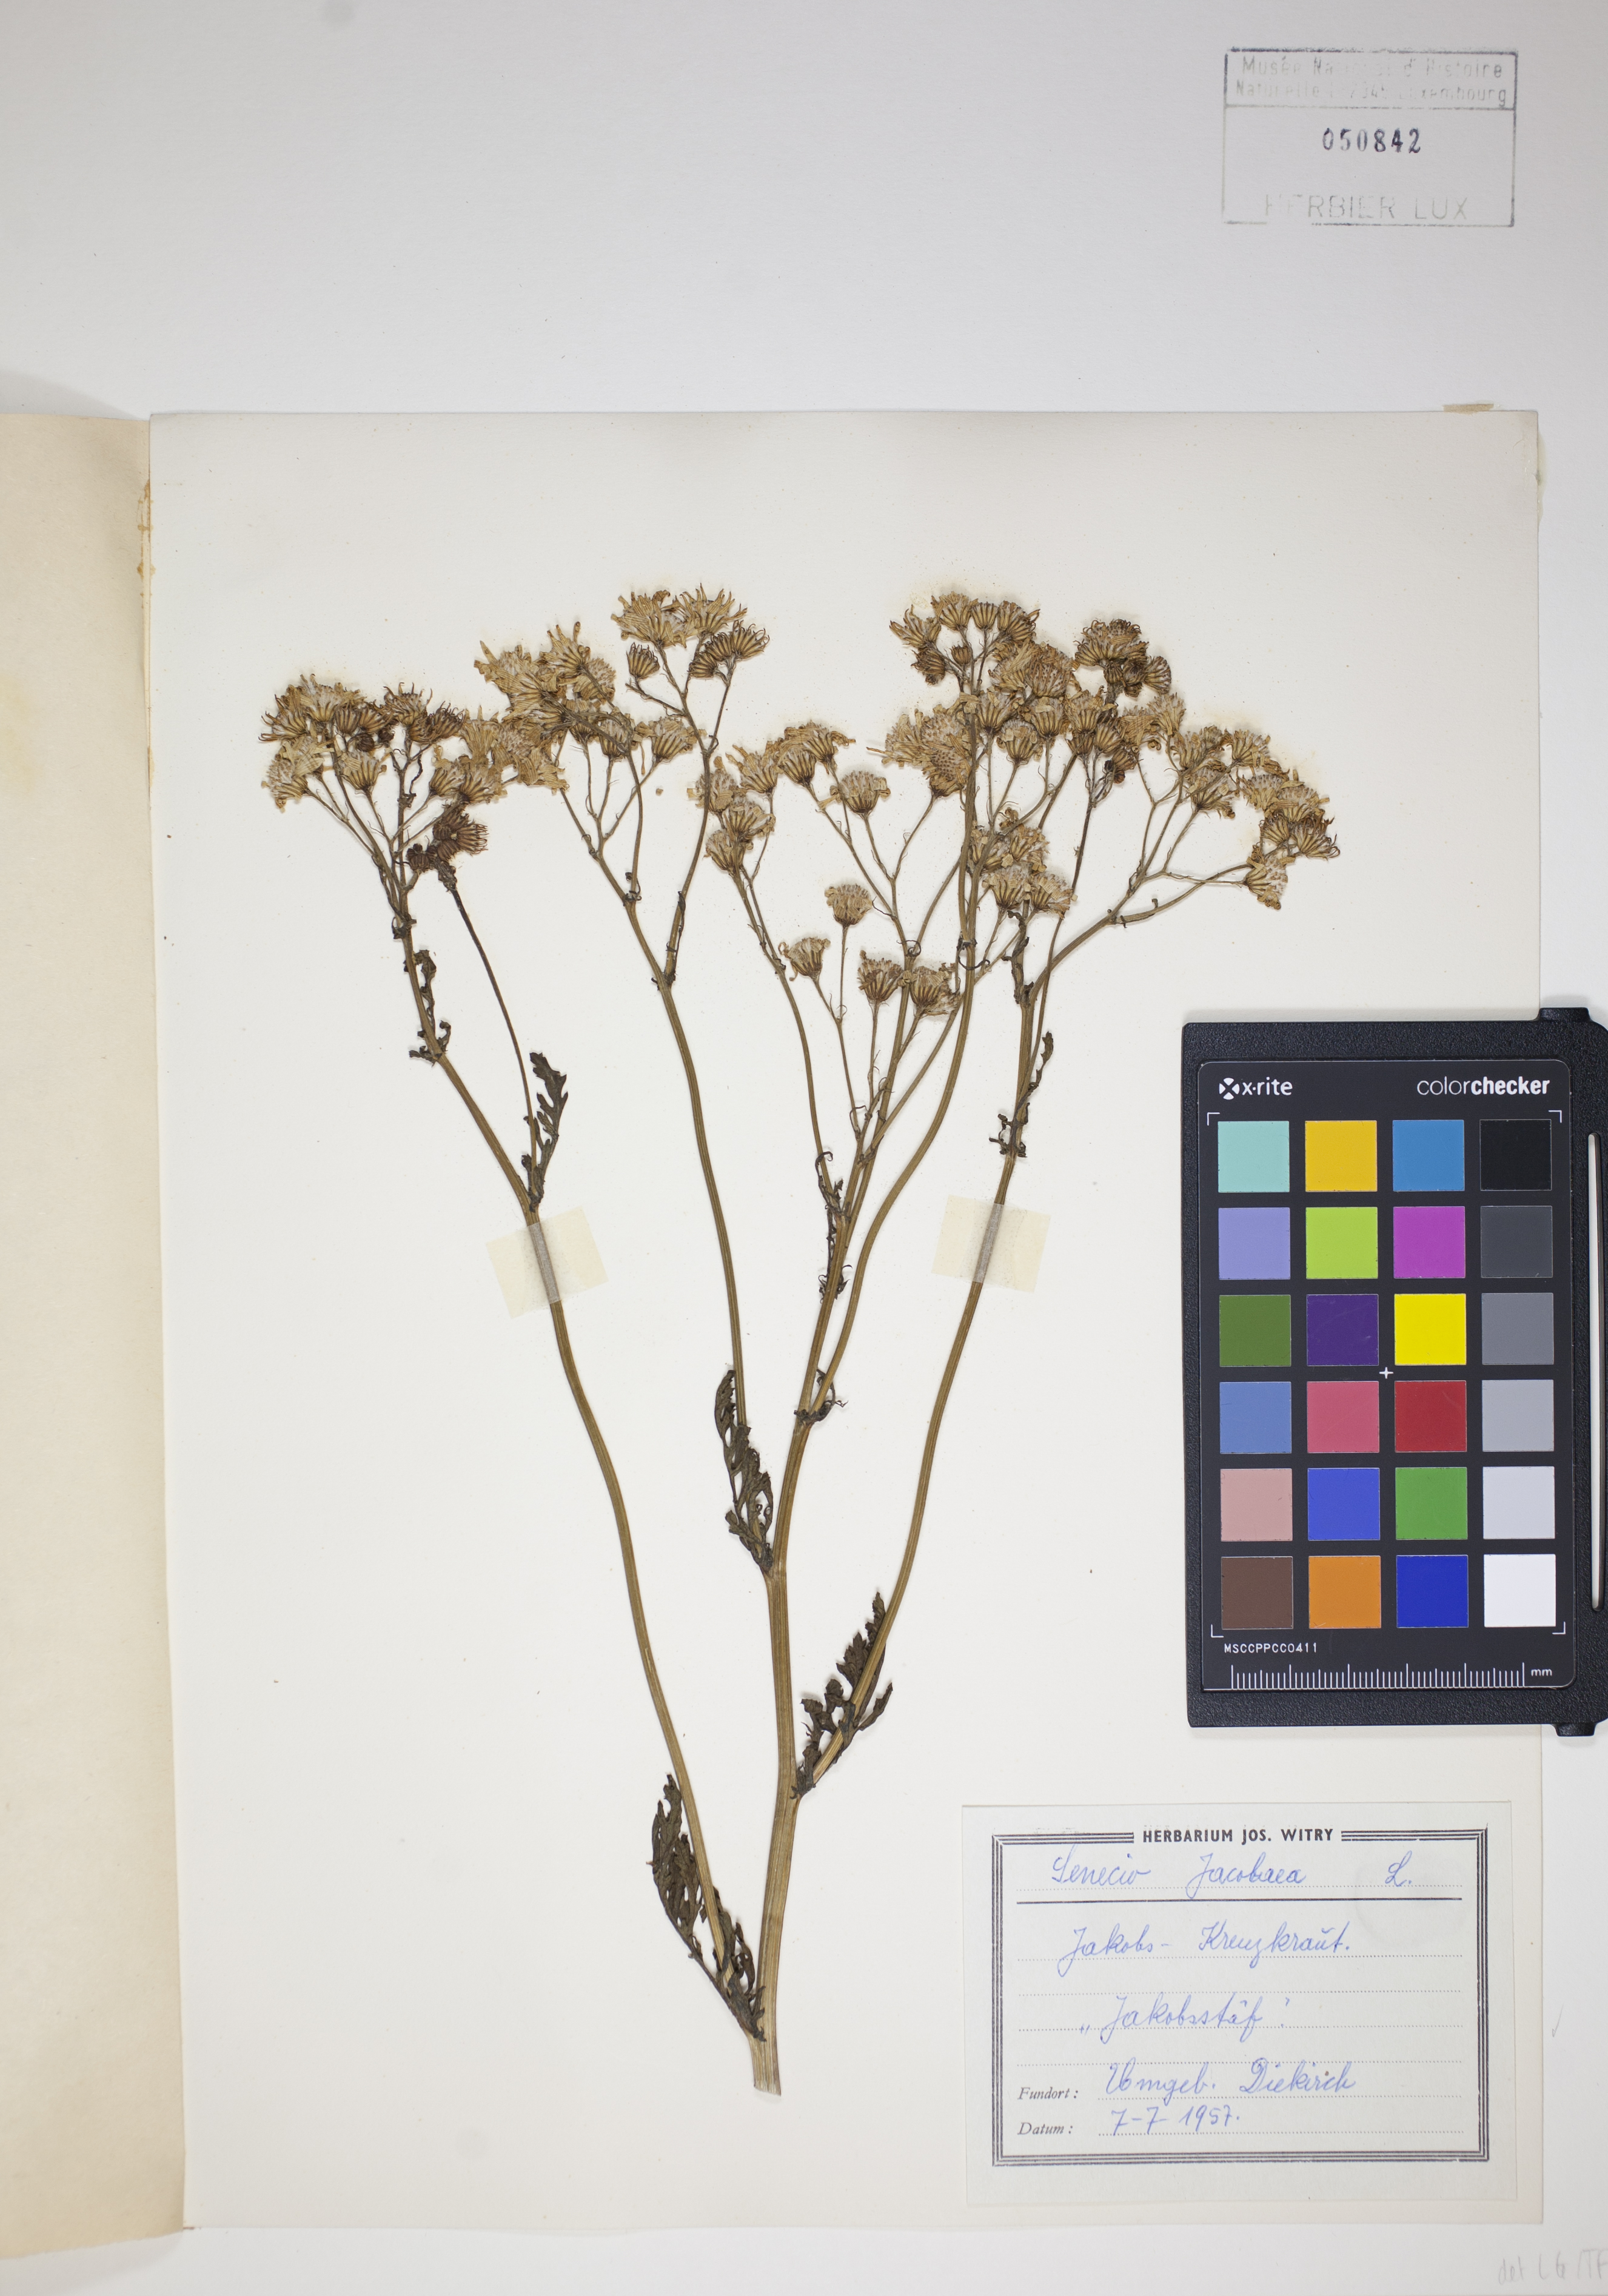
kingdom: Plantae
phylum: Tracheophyta
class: Magnoliopsida
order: Asterales
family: Asteraceae
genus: Jacobaea
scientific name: Jacobaea vulgaris
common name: Stinking willie
